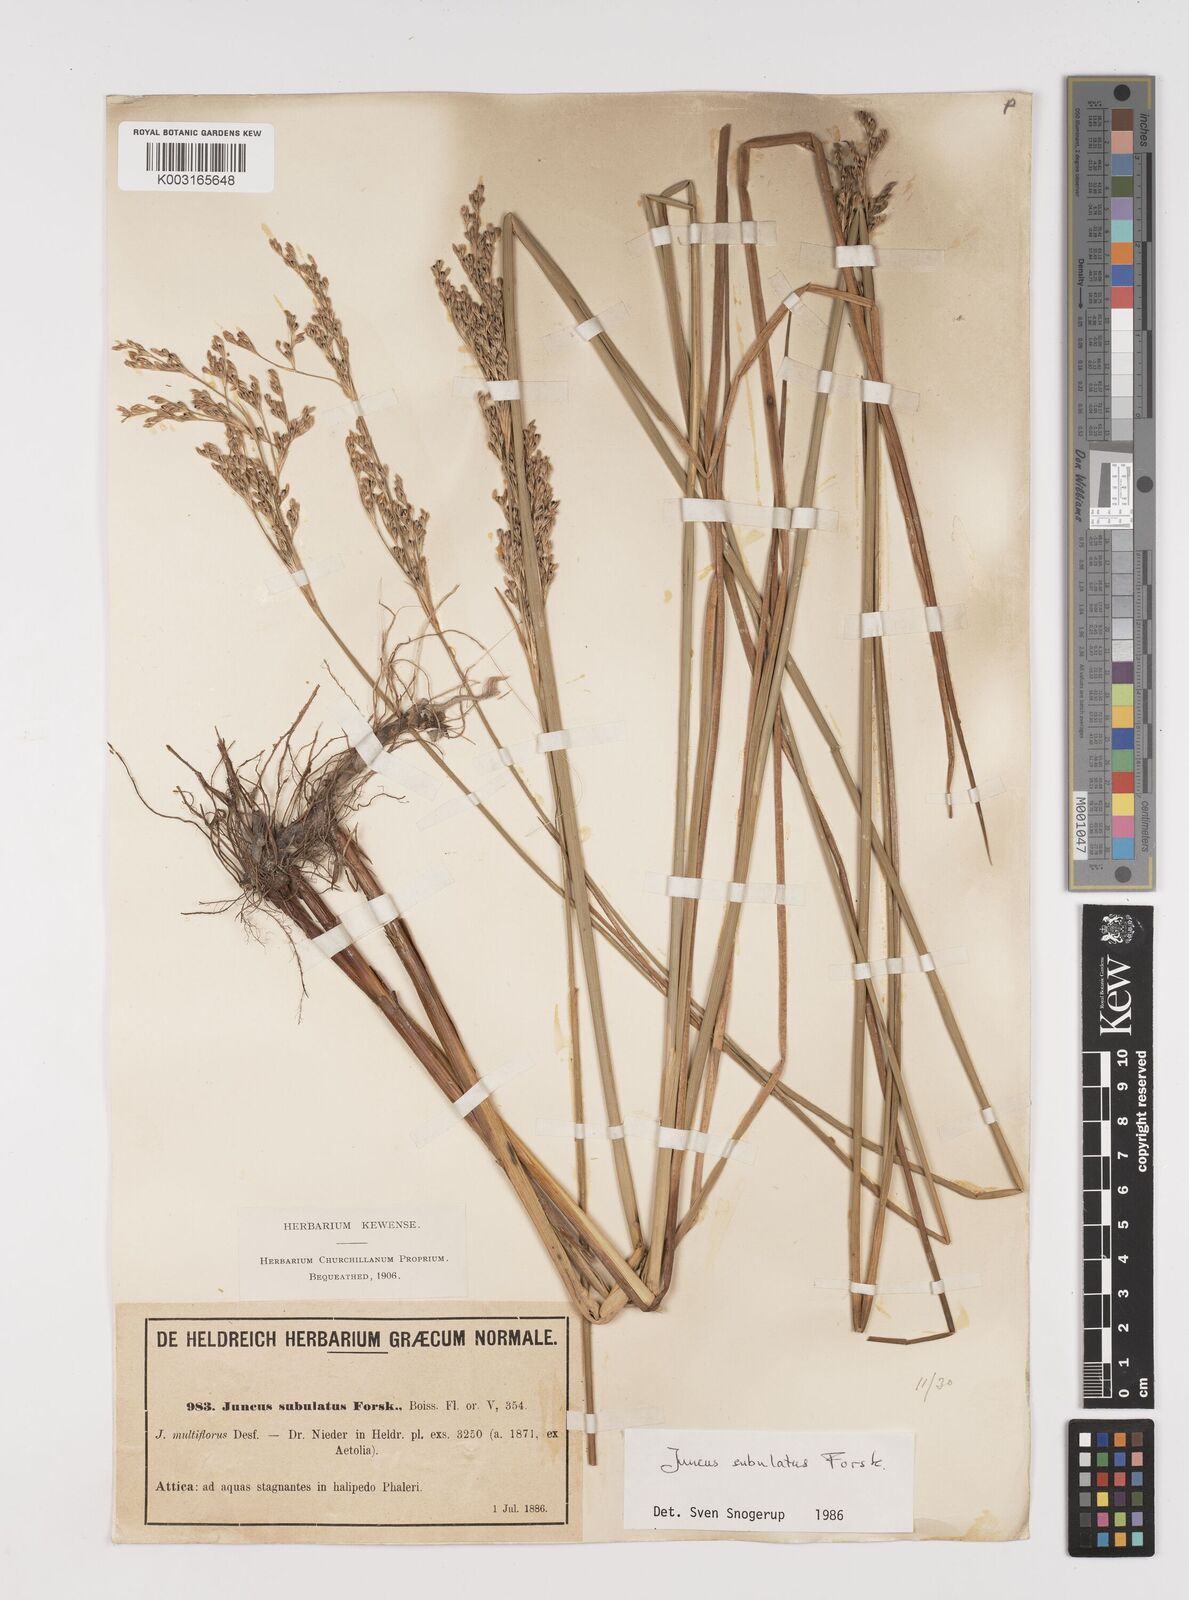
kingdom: Plantae
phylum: Tracheophyta
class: Liliopsida
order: Poales
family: Juncaceae
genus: Juncus
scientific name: Juncus subulatus
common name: Somerset rush
